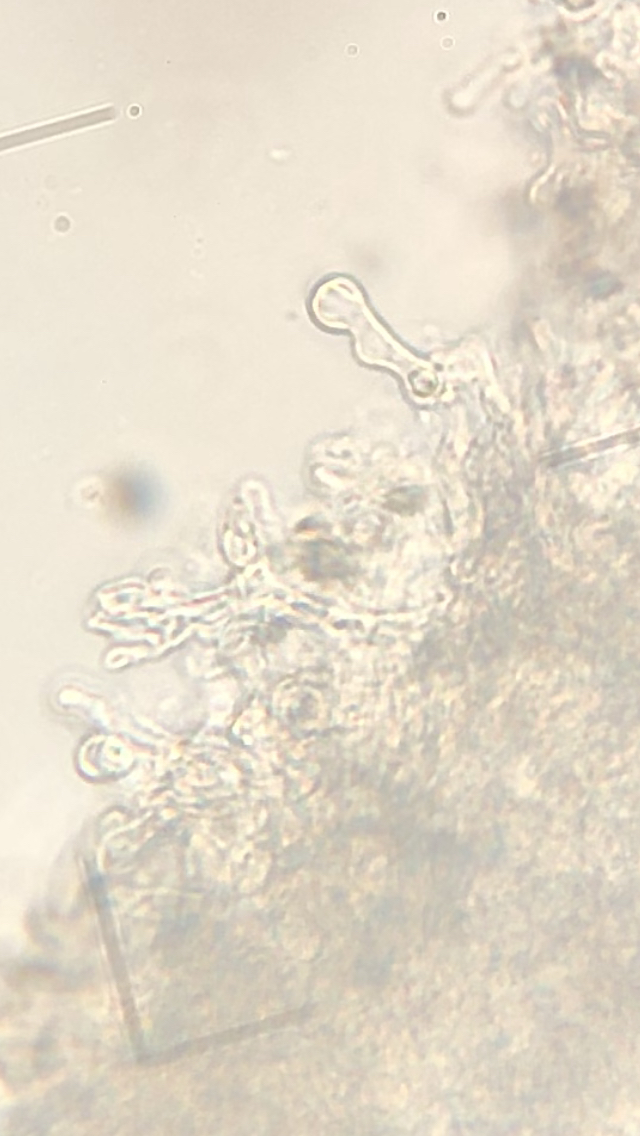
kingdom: Fungi
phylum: Basidiomycota
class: Agaricomycetes
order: Agaricales
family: Omphalotaceae
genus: Gymnopus
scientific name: Gymnopus dryophilus
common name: løv-fladhat
